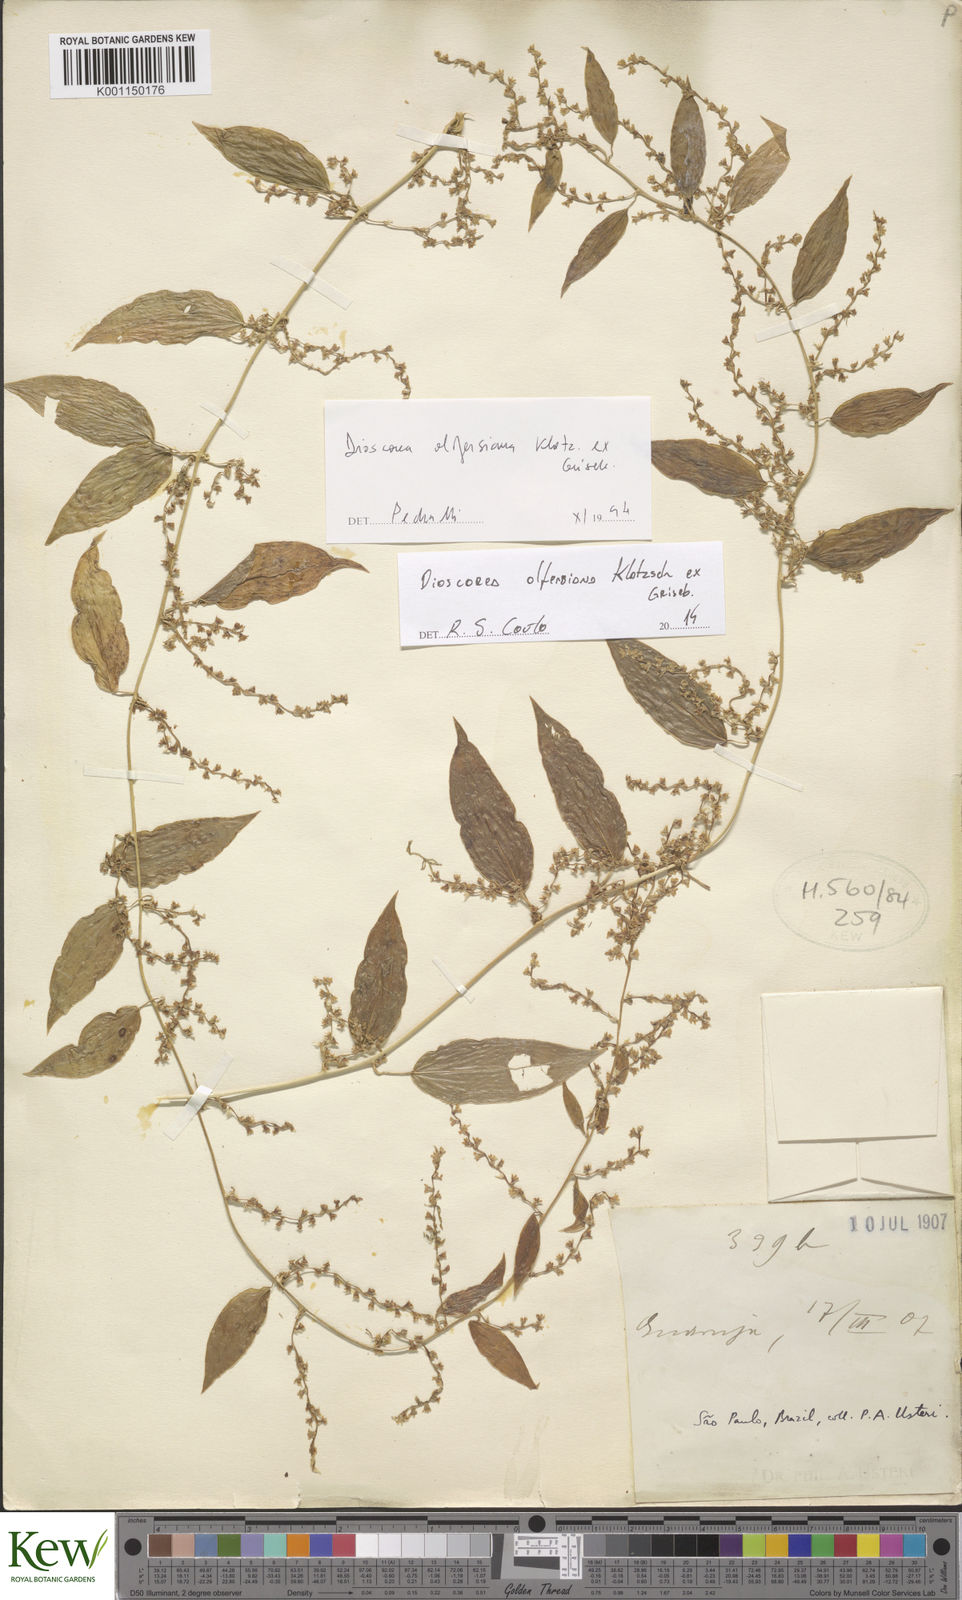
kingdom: Plantae
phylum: Tracheophyta
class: Liliopsida
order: Dioscoreales
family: Dioscoreaceae
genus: Dioscorea
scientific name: Dioscorea
